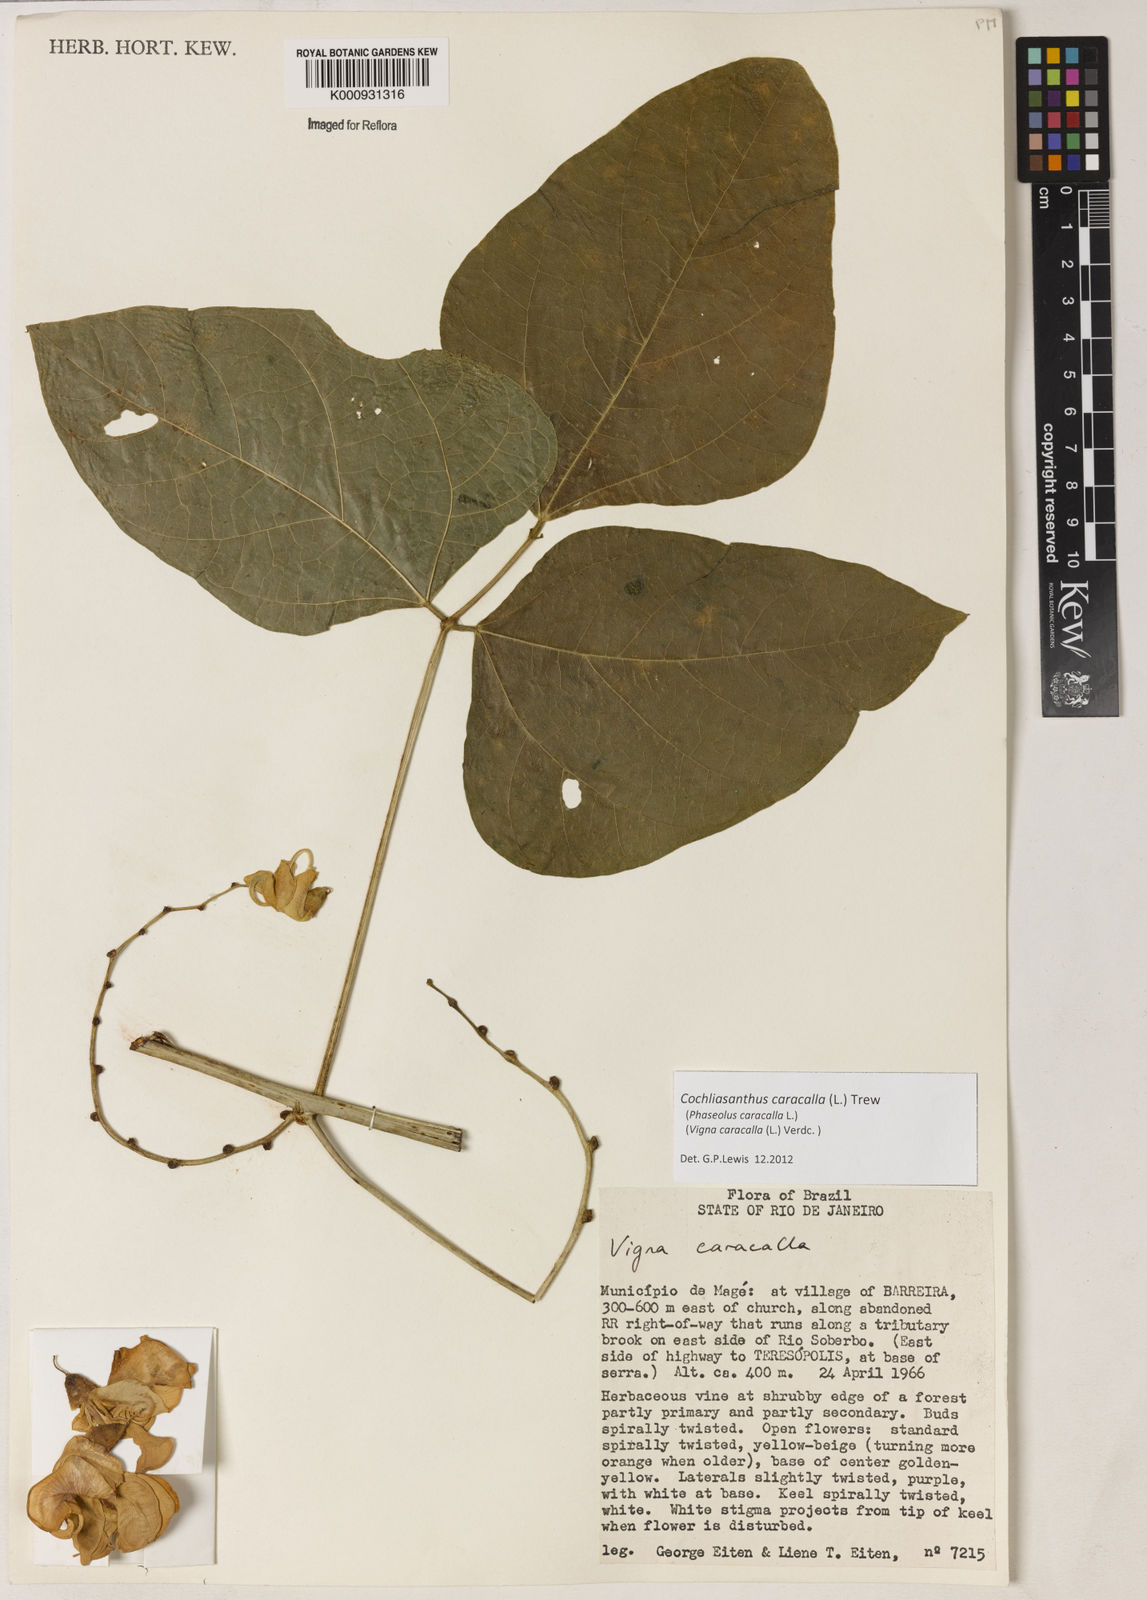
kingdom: Plantae
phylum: Tracheophyta
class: Magnoliopsida
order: Fabales
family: Fabaceae
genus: Cochliasanthus
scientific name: Cochliasanthus caracalla
